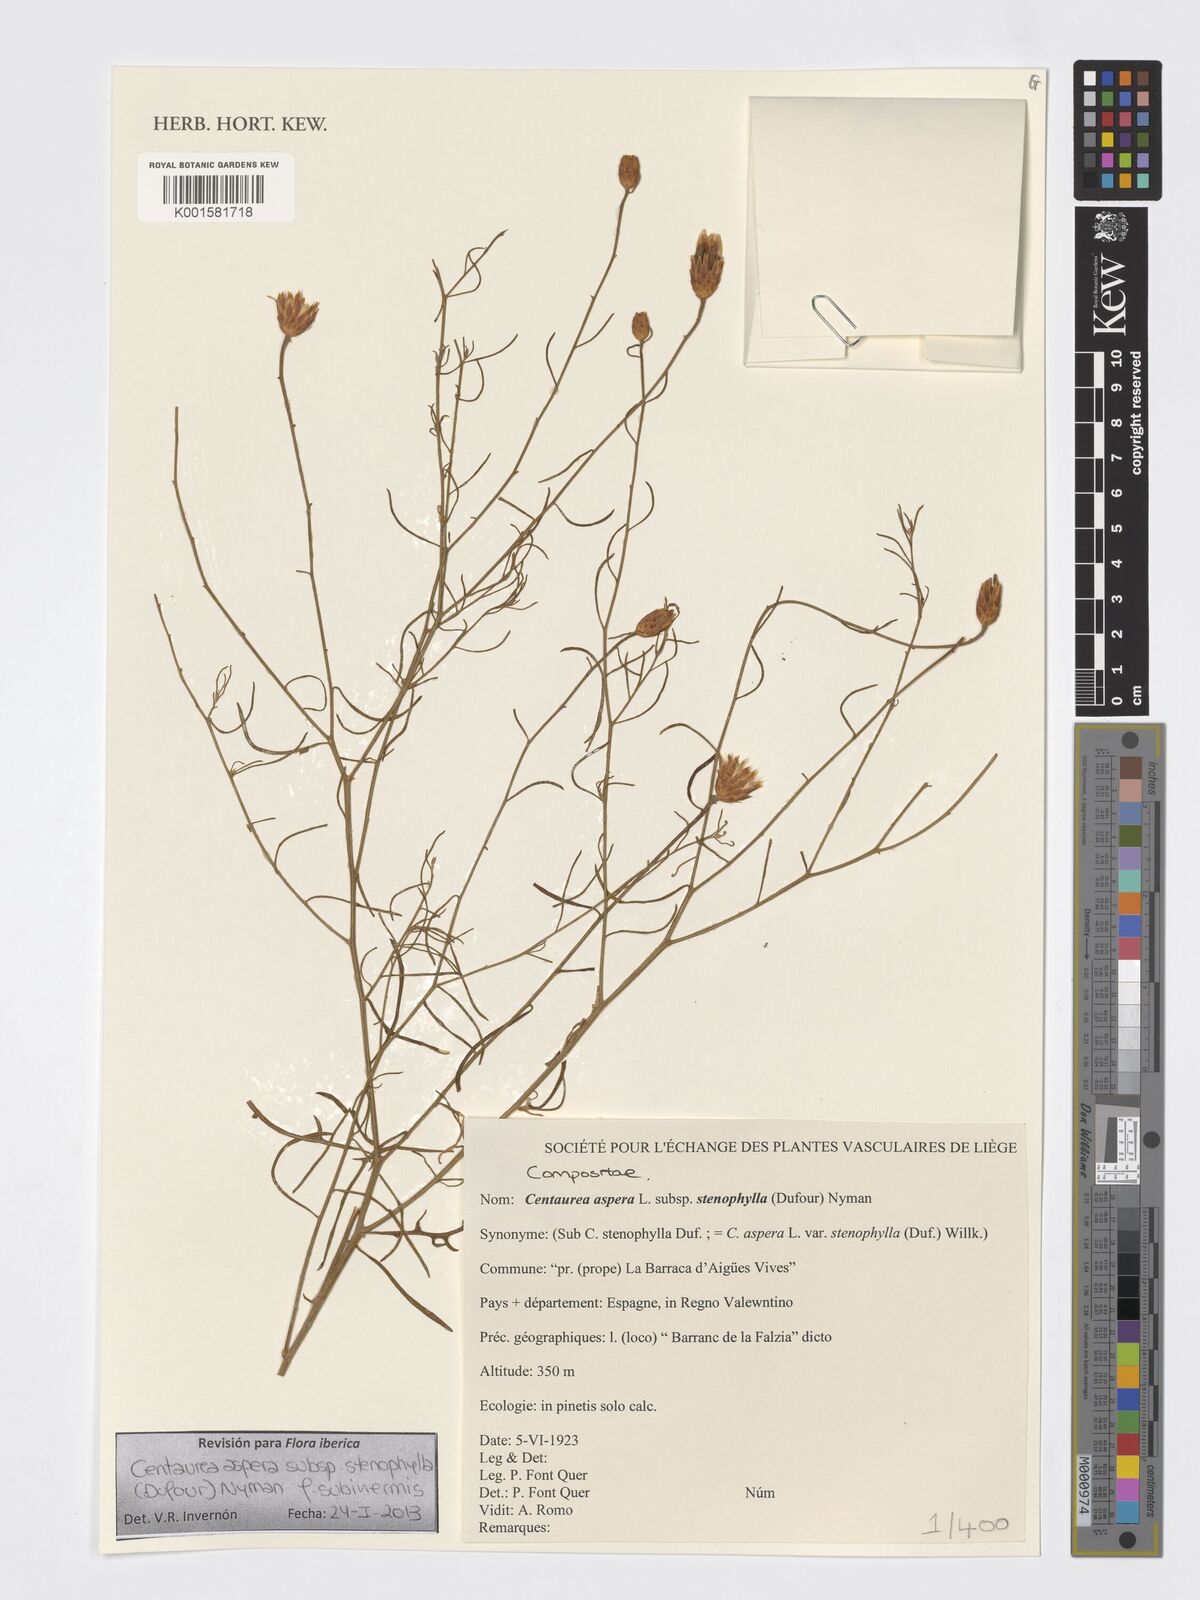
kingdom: Plantae
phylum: Tracheophyta
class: Magnoliopsida
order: Asterales
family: Asteraceae
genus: Centaurea
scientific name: Centaurea aspera
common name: Rough star-thistle
